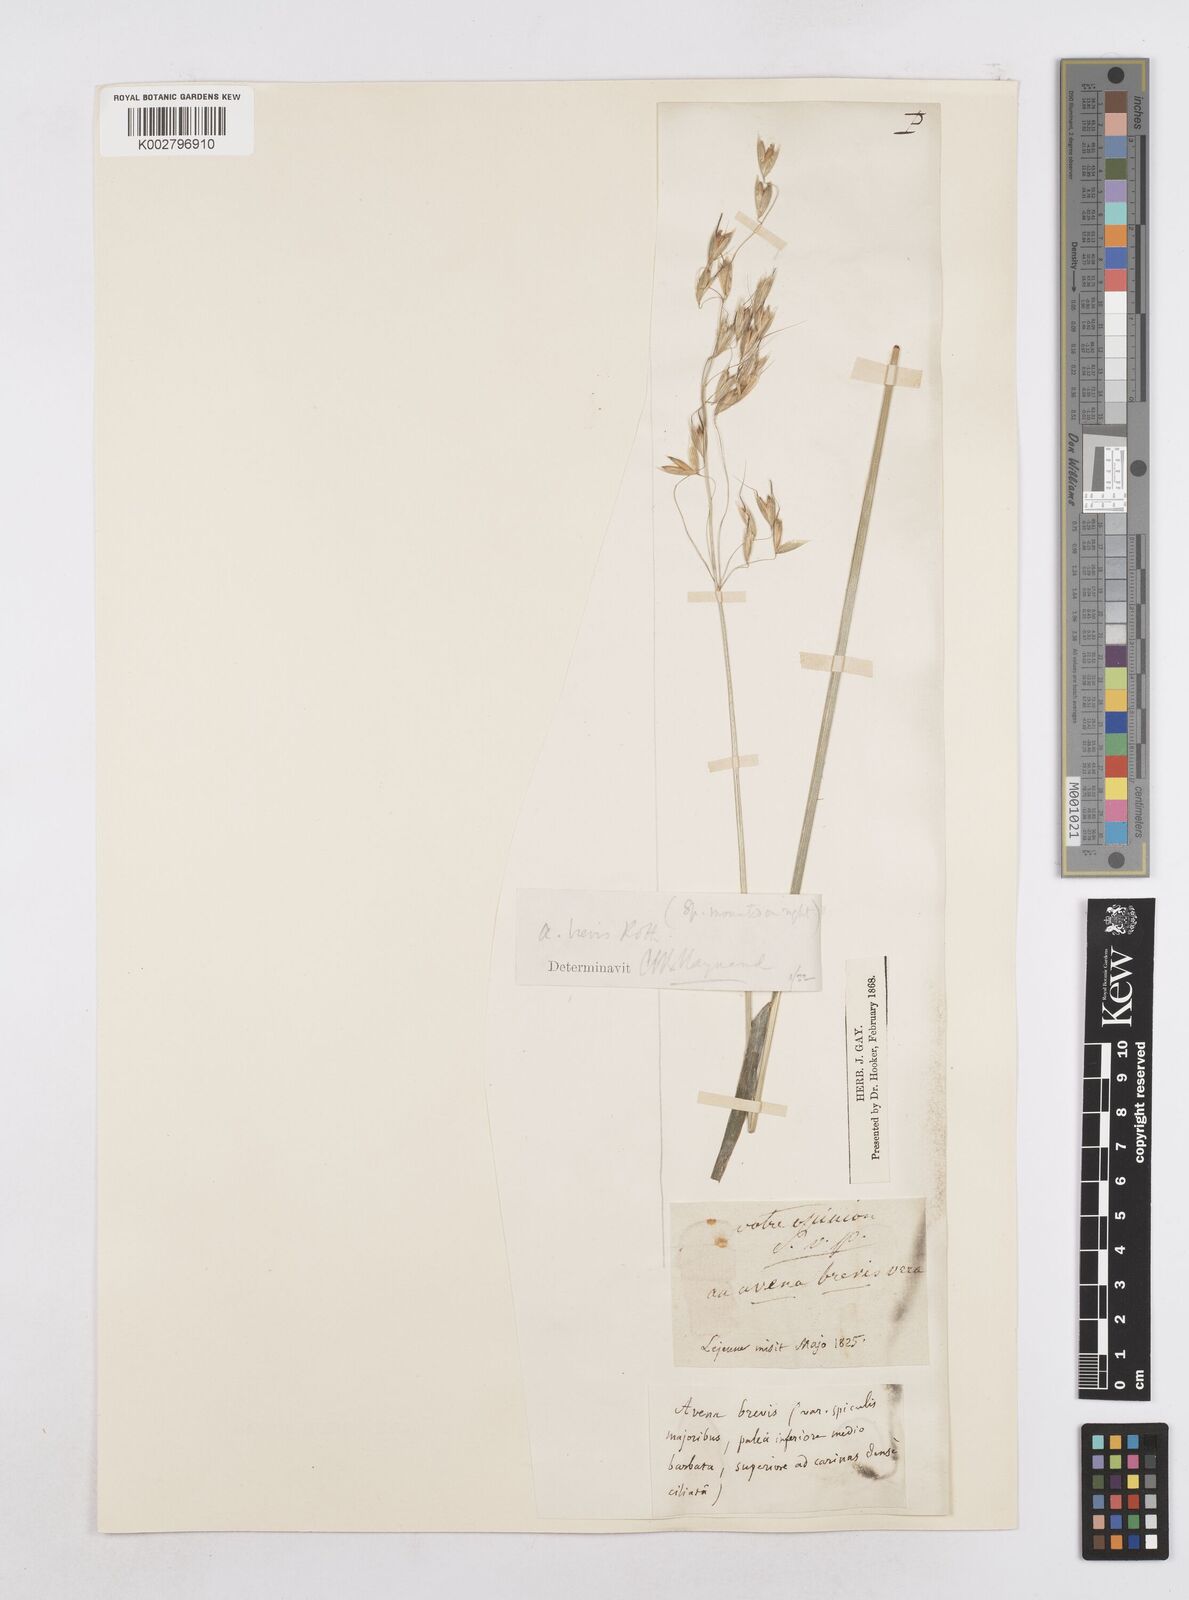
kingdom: Plantae
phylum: Tracheophyta
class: Liliopsida
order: Poales
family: Poaceae
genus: Avena
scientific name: Avena brevis
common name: Short oat
